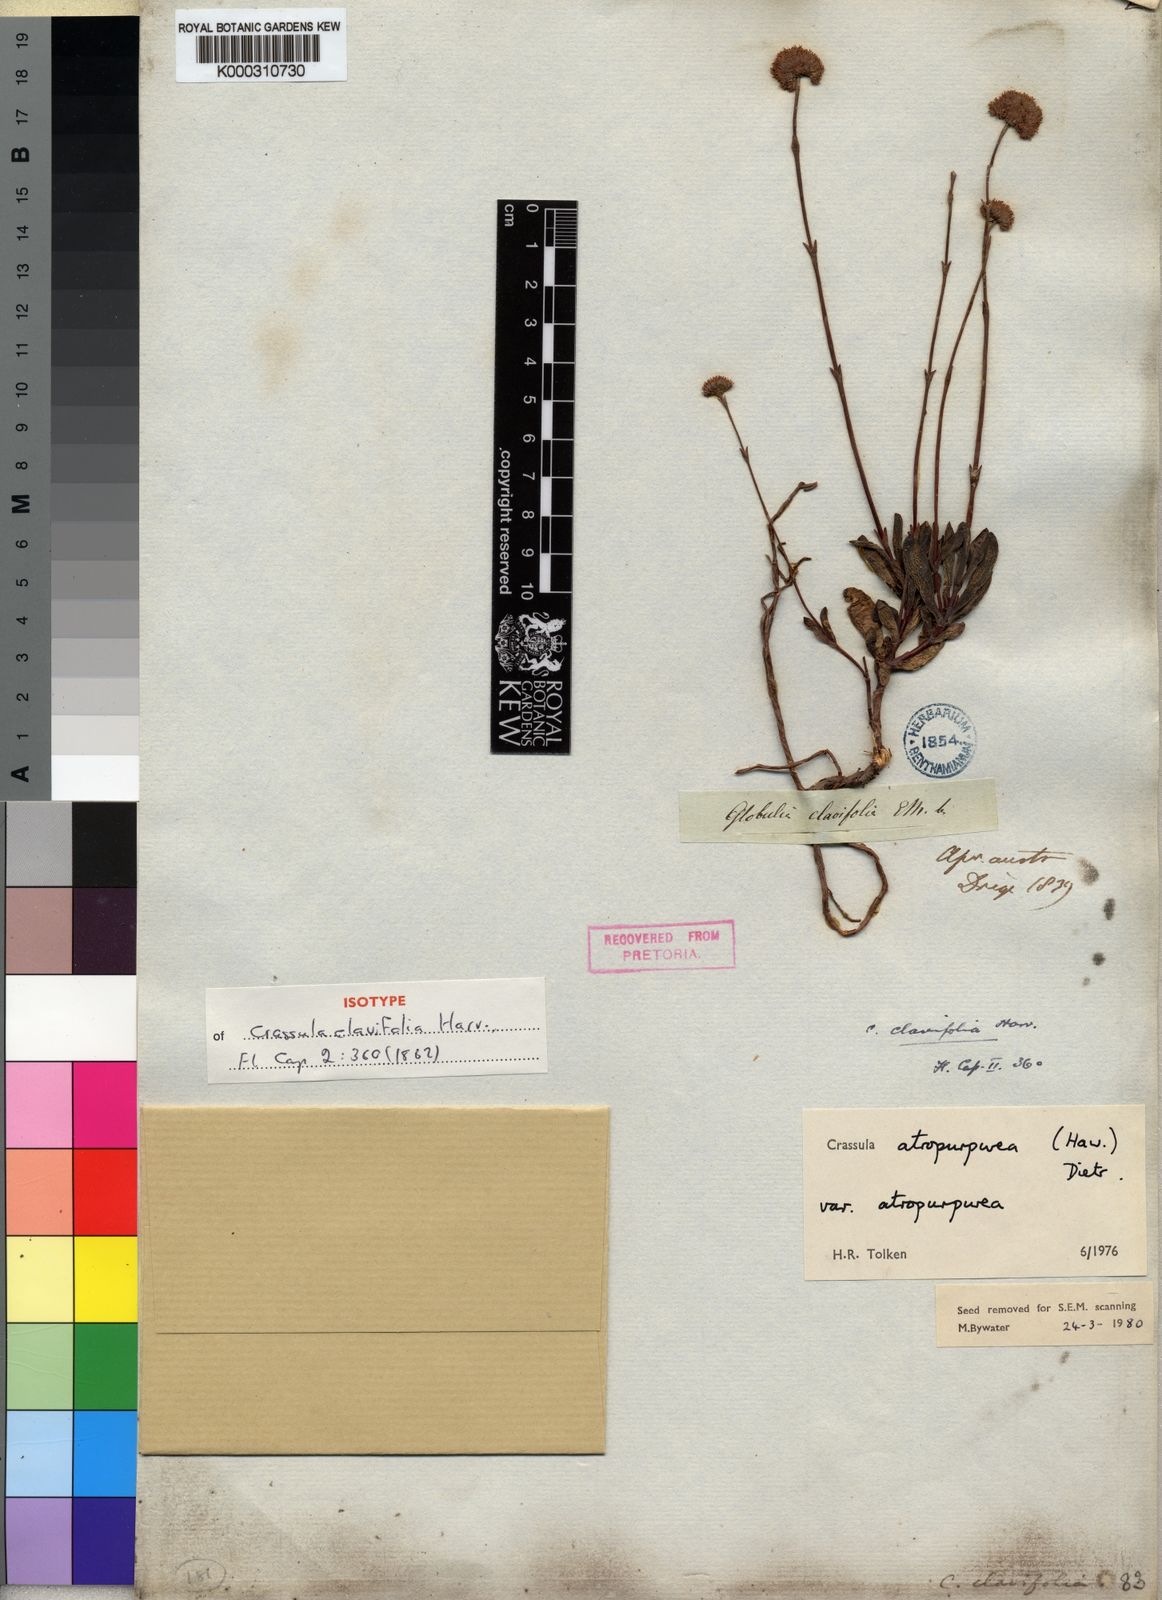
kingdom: Plantae
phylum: Tracheophyta
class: Magnoliopsida
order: Saxifragales
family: Crassulaceae
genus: Crassula
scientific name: Crassula atropurpurea
